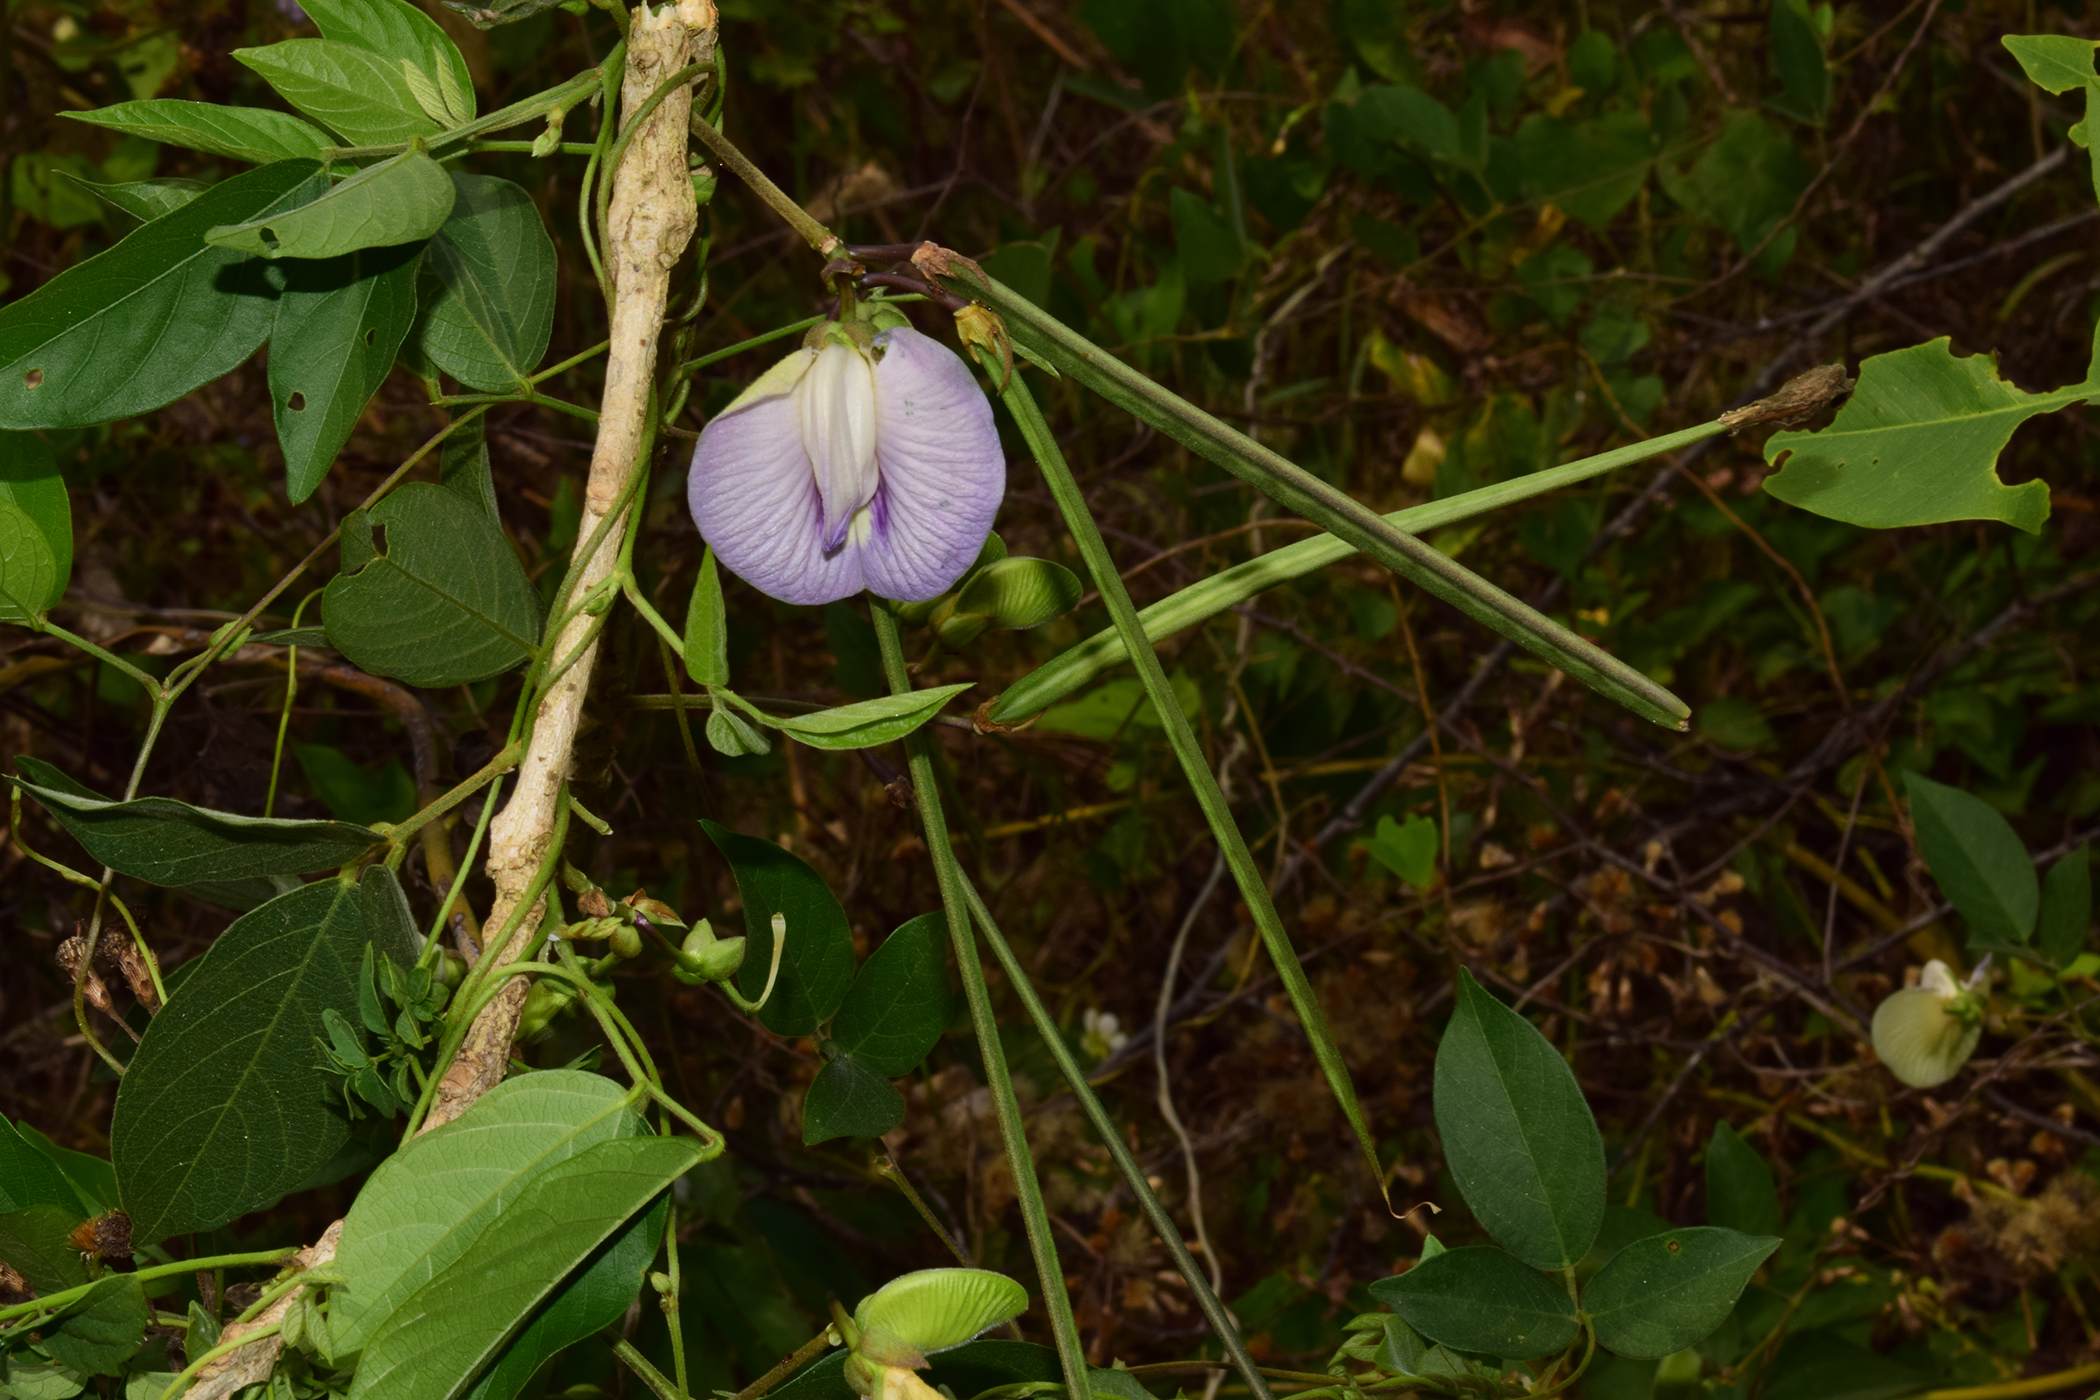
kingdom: Plantae
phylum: Tracheophyta
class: Magnoliopsida
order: Fabales
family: Fabaceae
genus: Centrosema
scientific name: Centrosema pubescens
